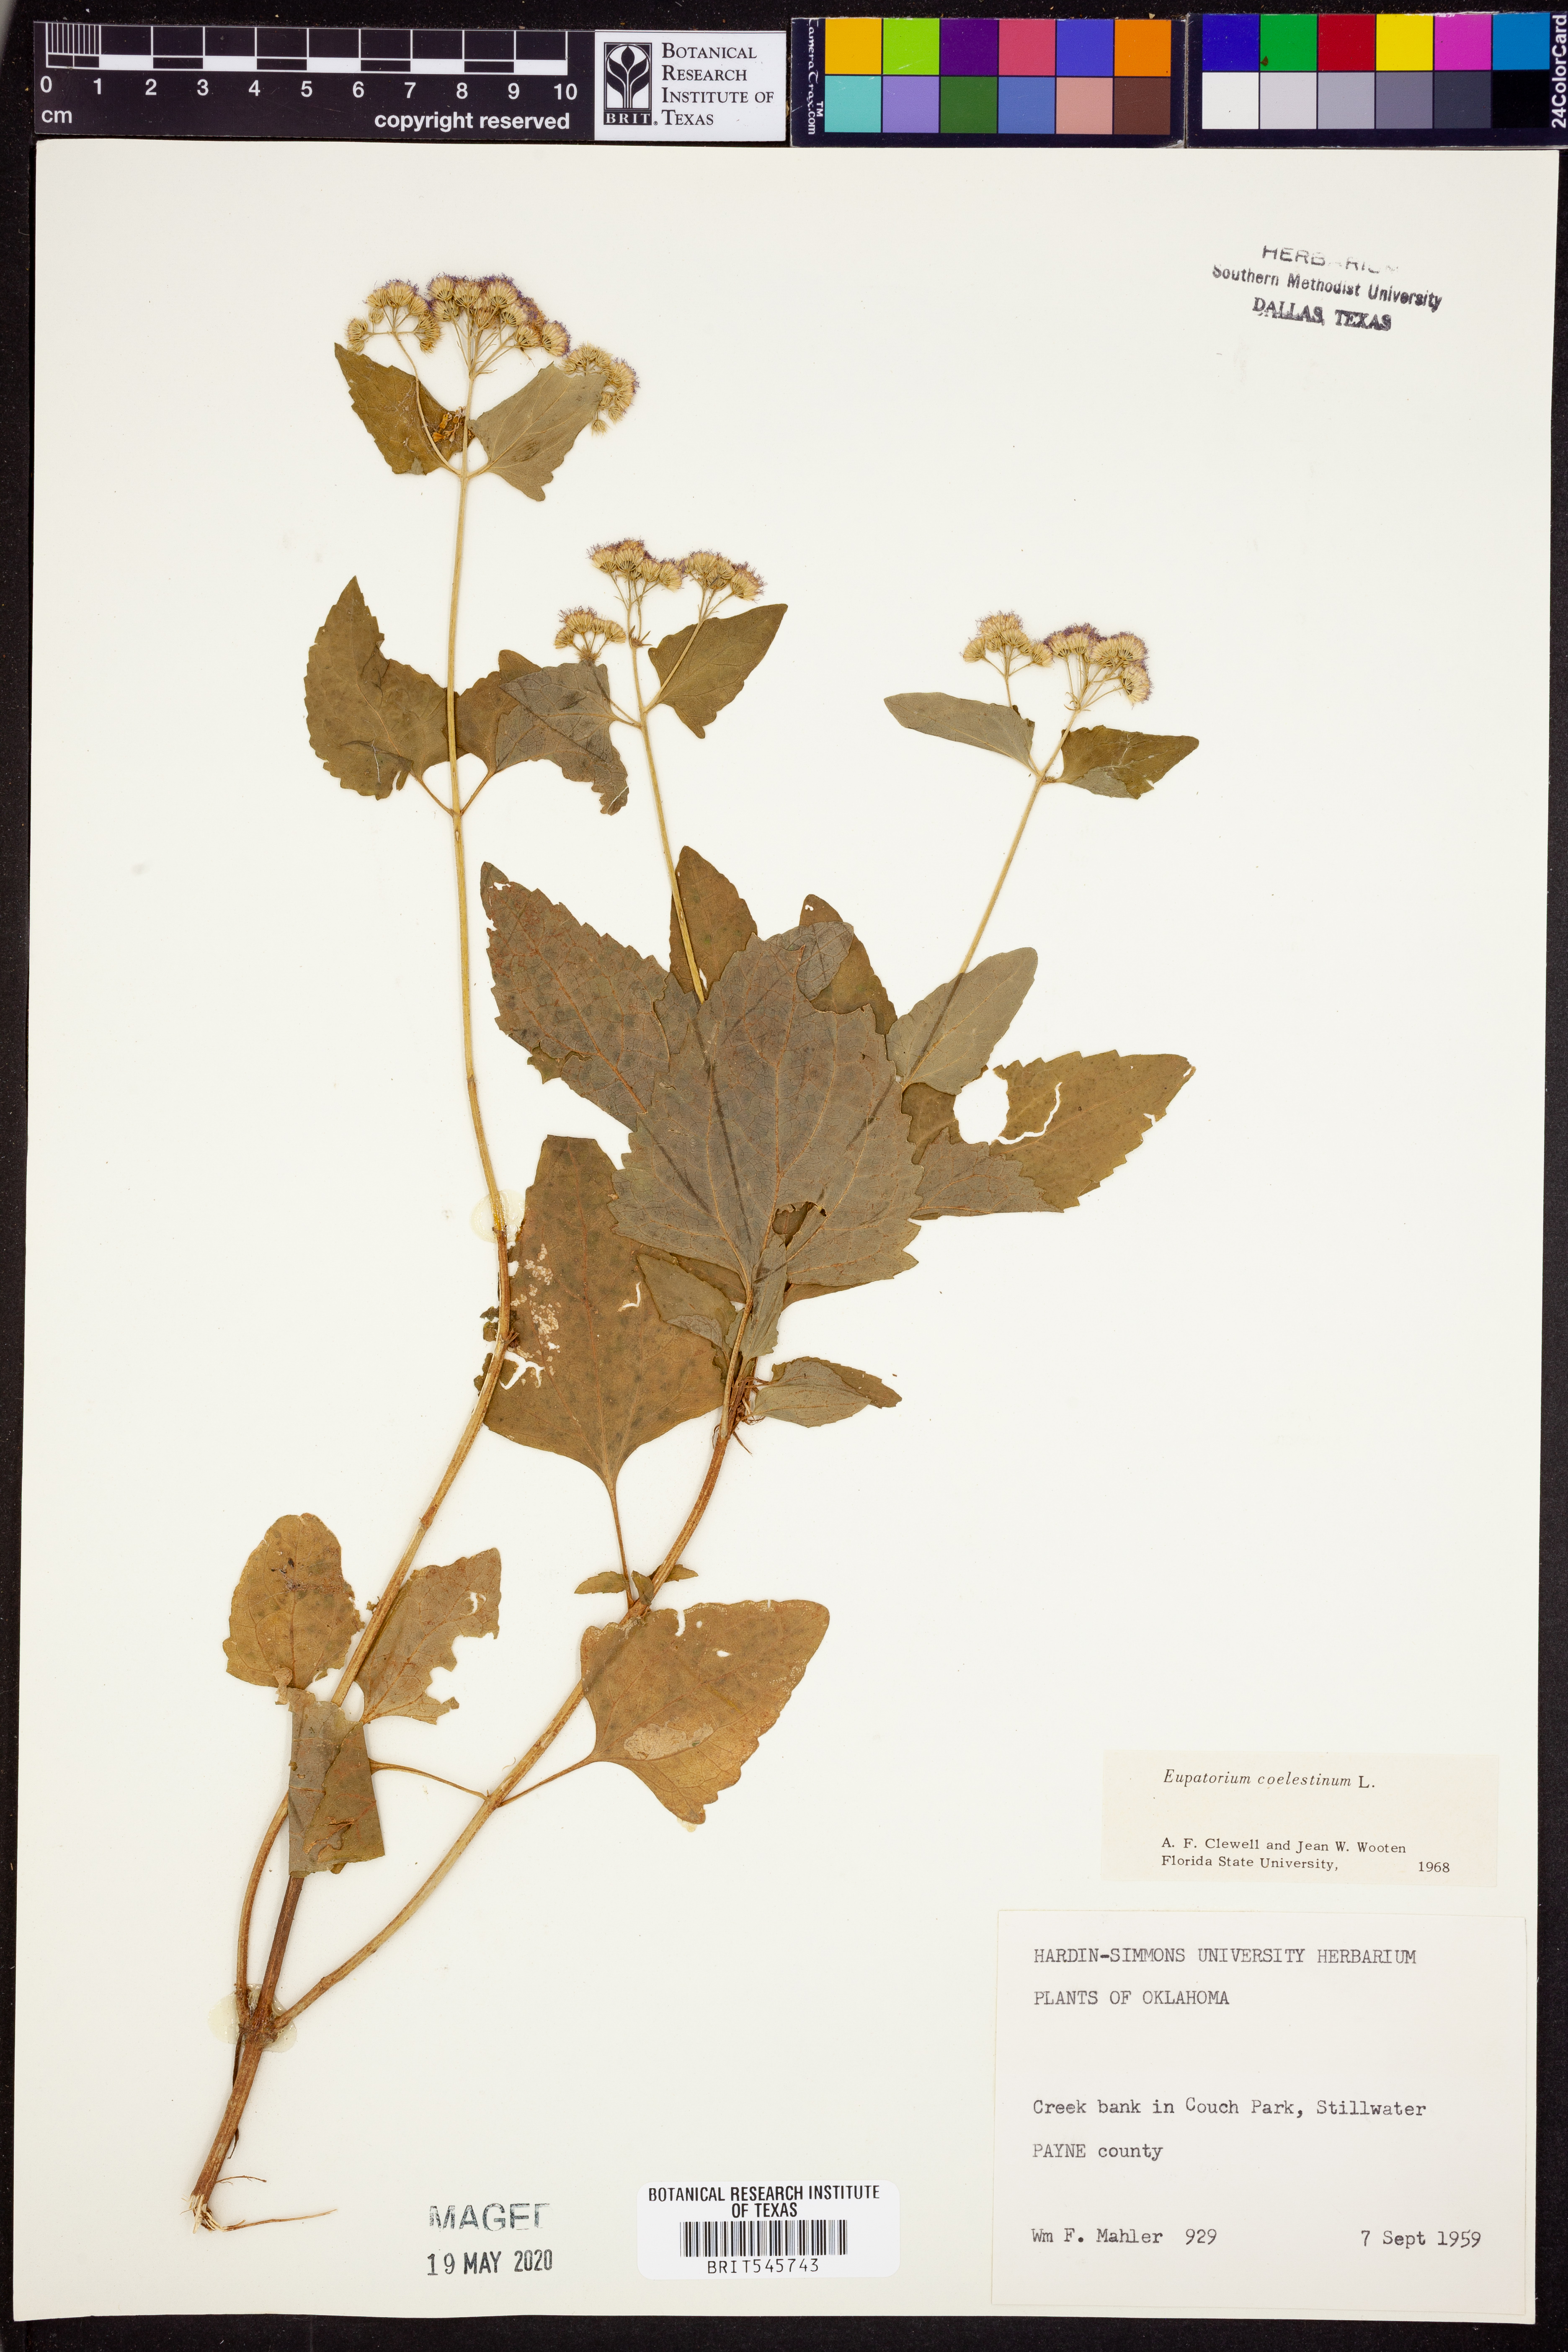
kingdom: Plantae
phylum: Tracheophyta
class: Magnoliopsida
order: Asterales
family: Asteraceae
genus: Conoclinium
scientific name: Conoclinium coelestinum
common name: Blue mistflower
